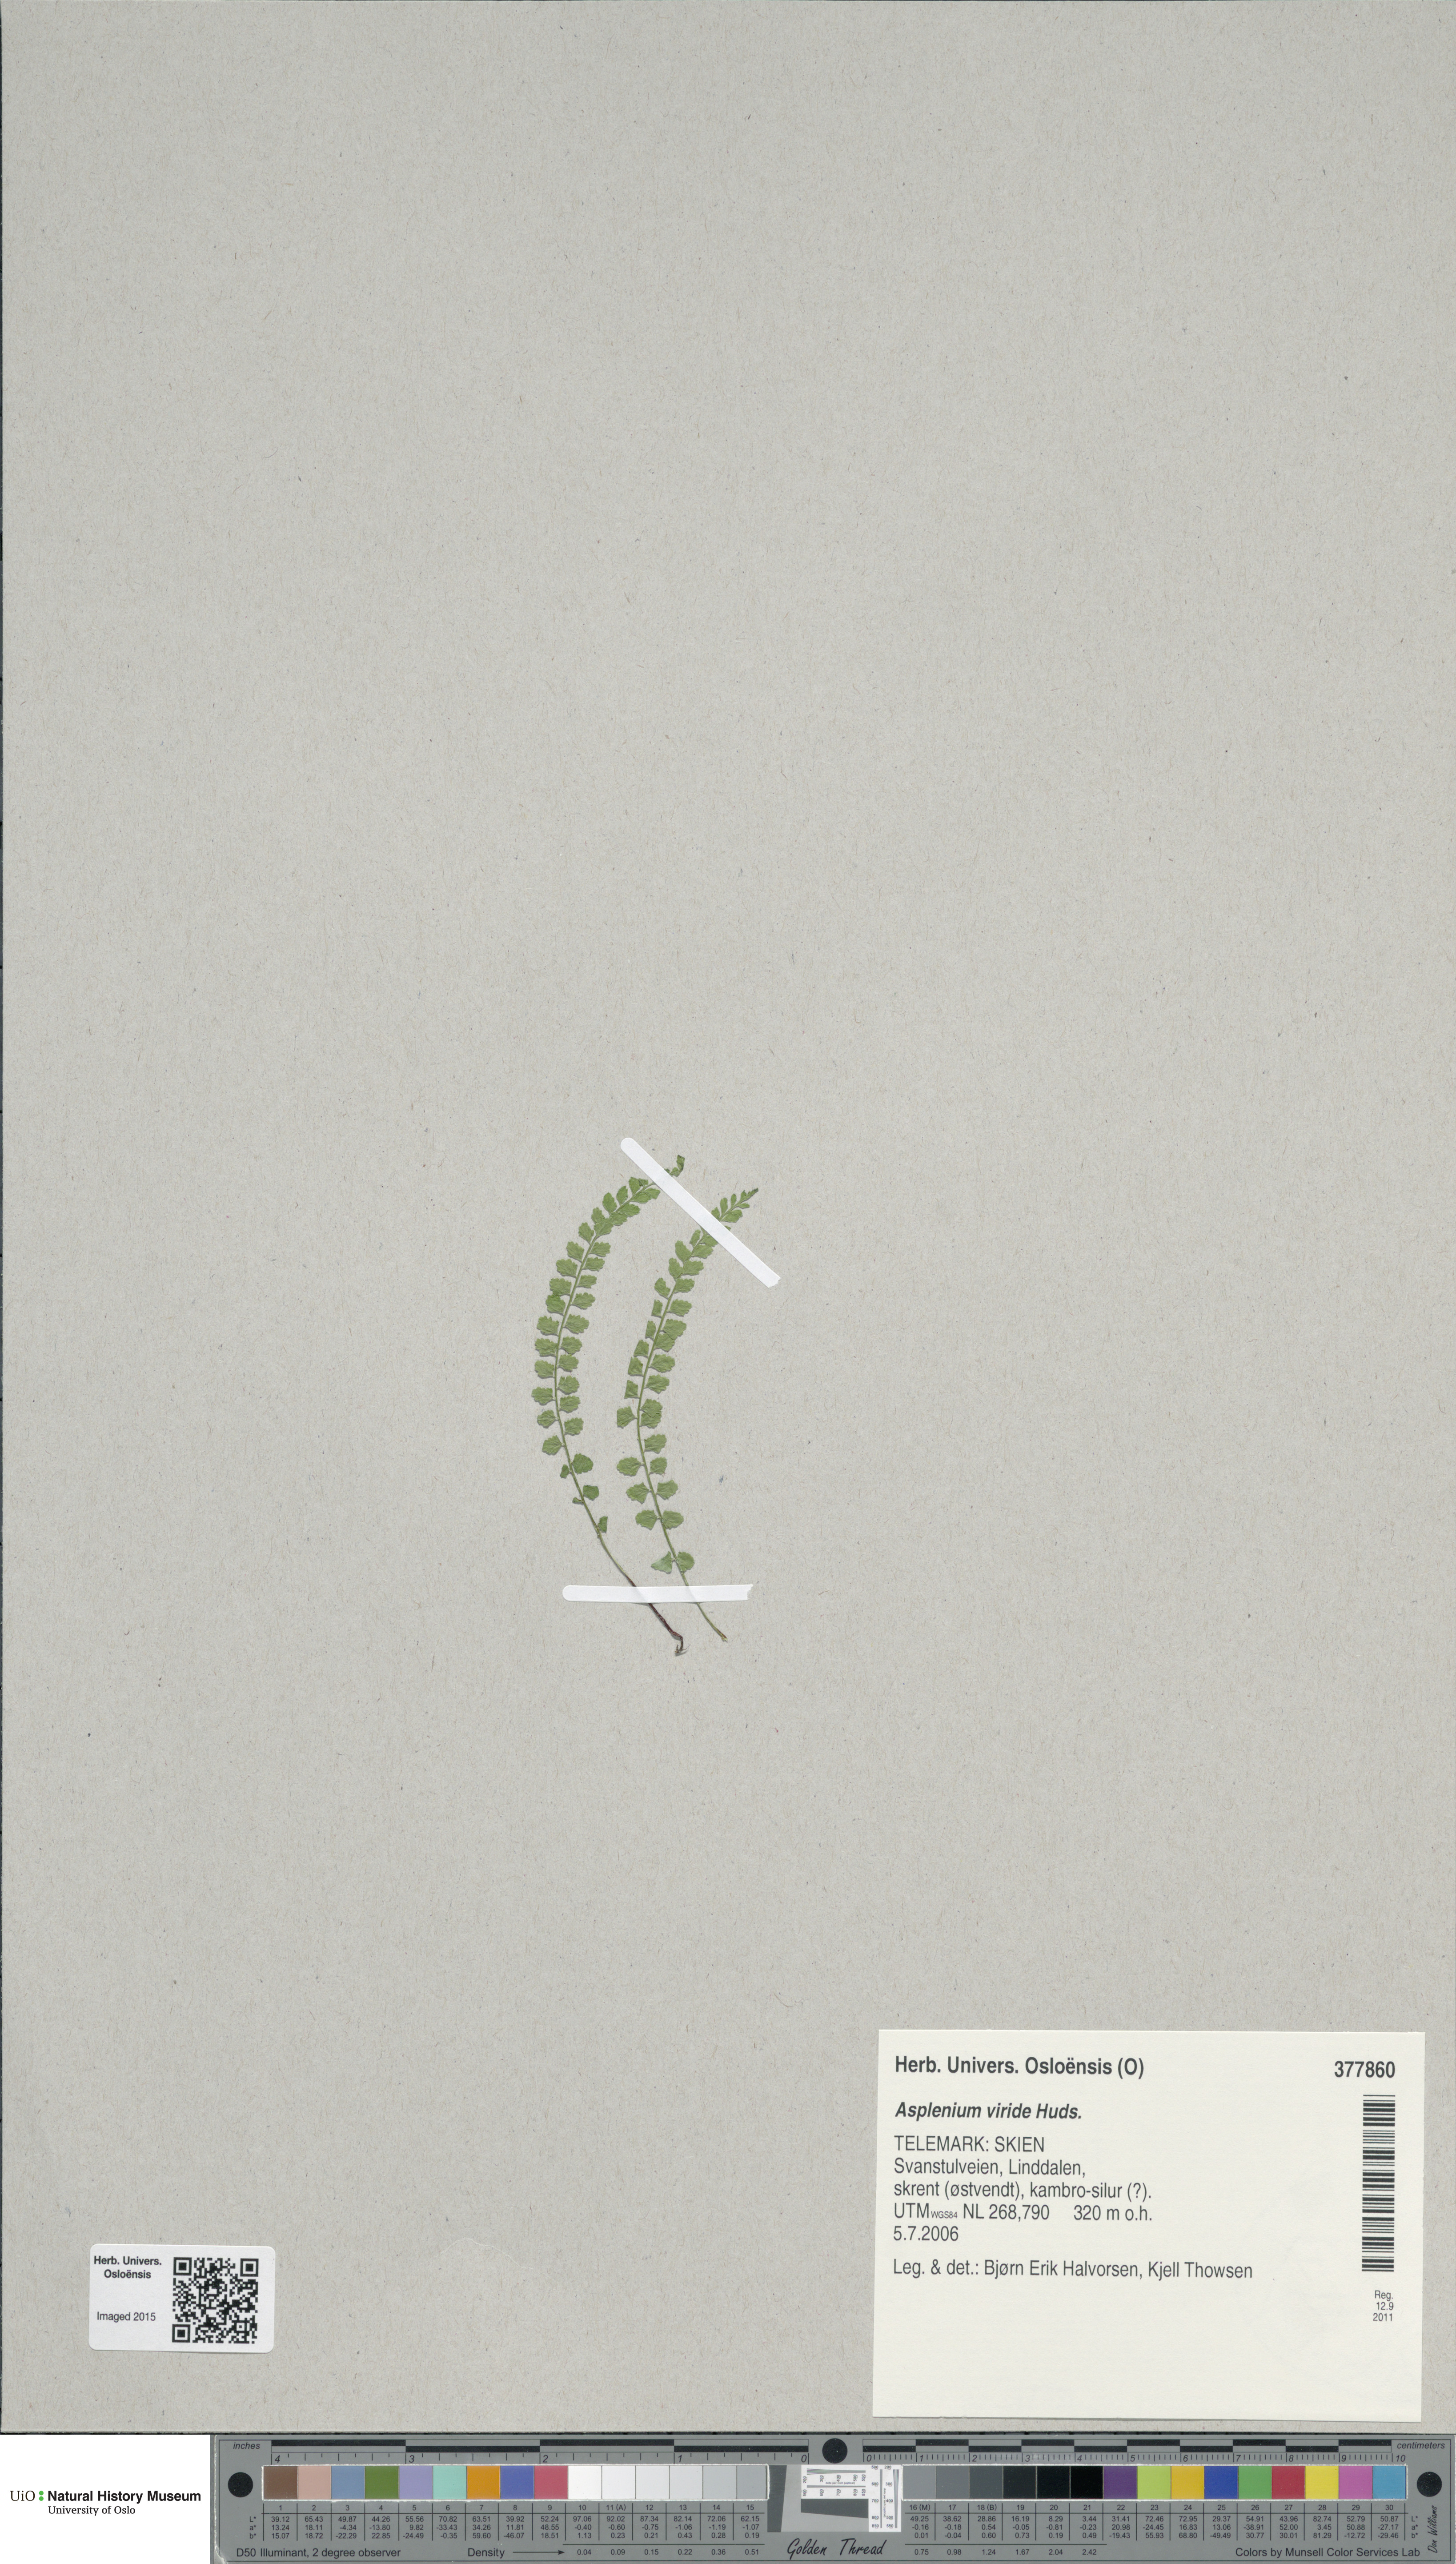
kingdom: Plantae
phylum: Tracheophyta
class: Polypodiopsida
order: Polypodiales
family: Aspleniaceae
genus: Asplenium
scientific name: Asplenium viride
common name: Green spleenwort
